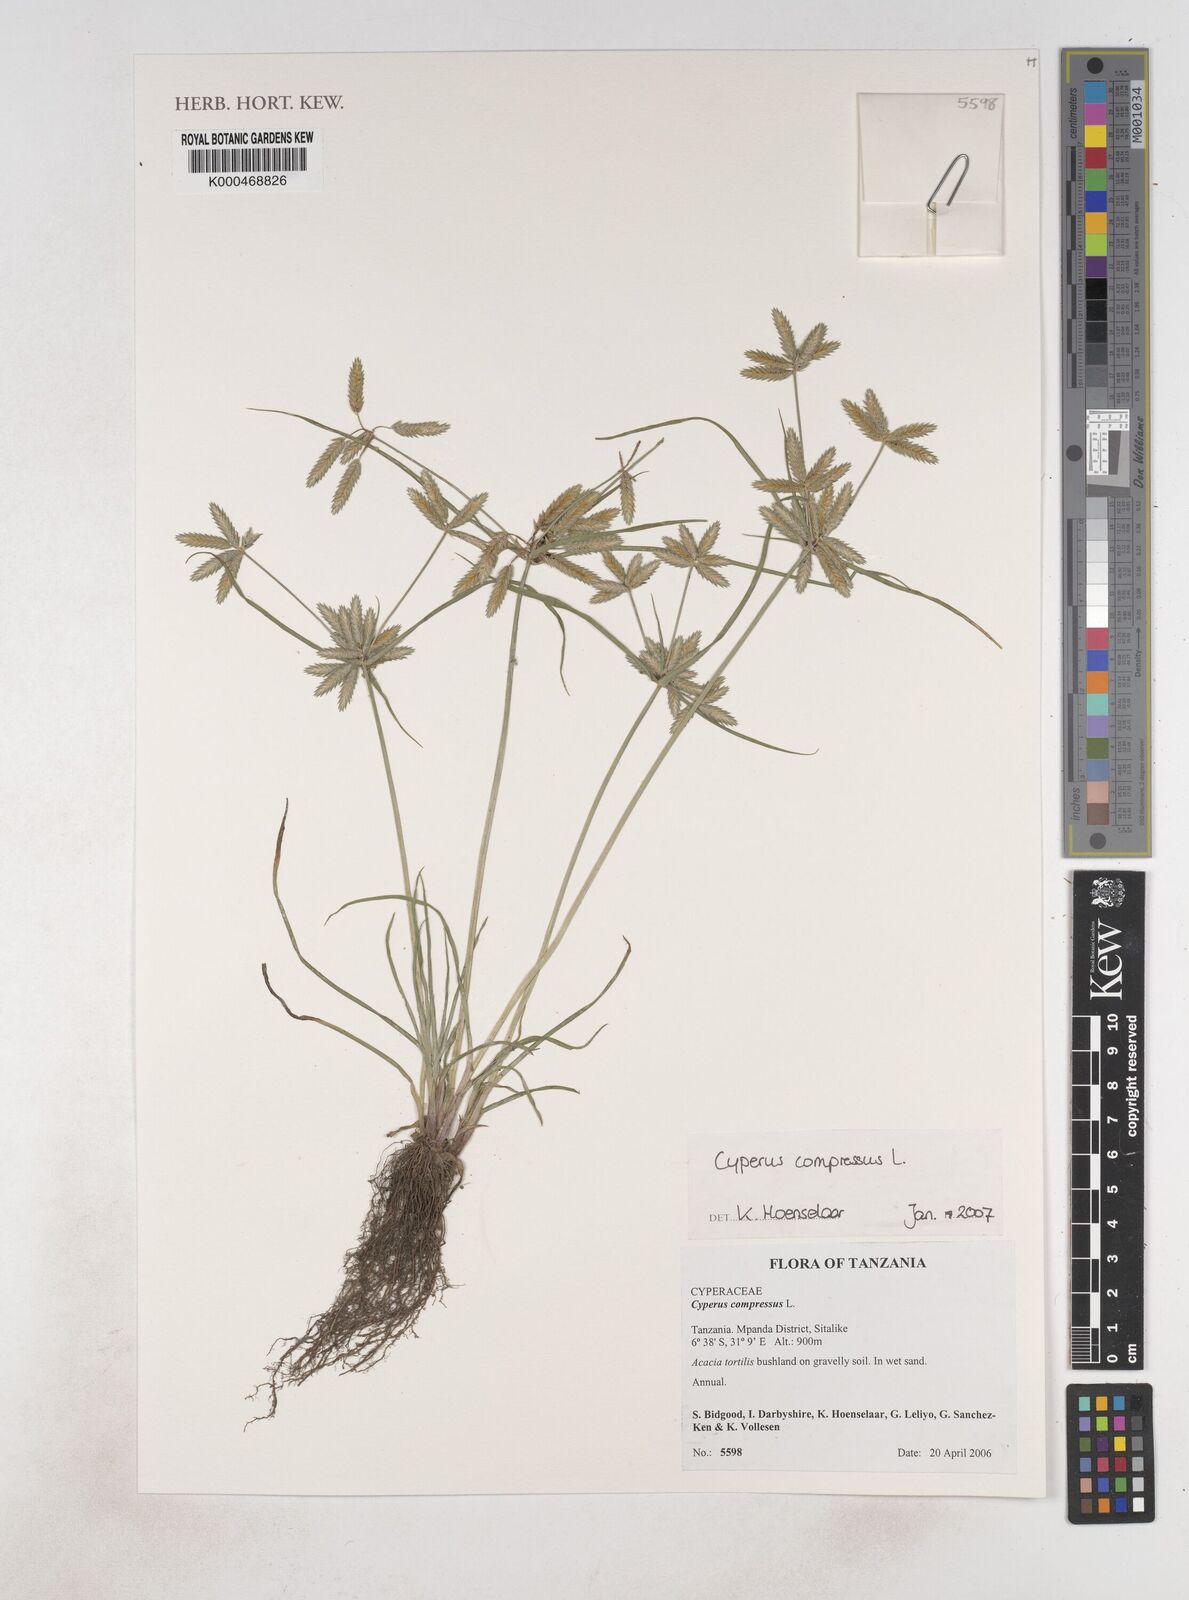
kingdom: Plantae
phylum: Tracheophyta
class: Liliopsida
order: Poales
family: Cyperaceae
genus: Cyperus
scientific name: Cyperus compressus
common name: Poorland flatsedge
